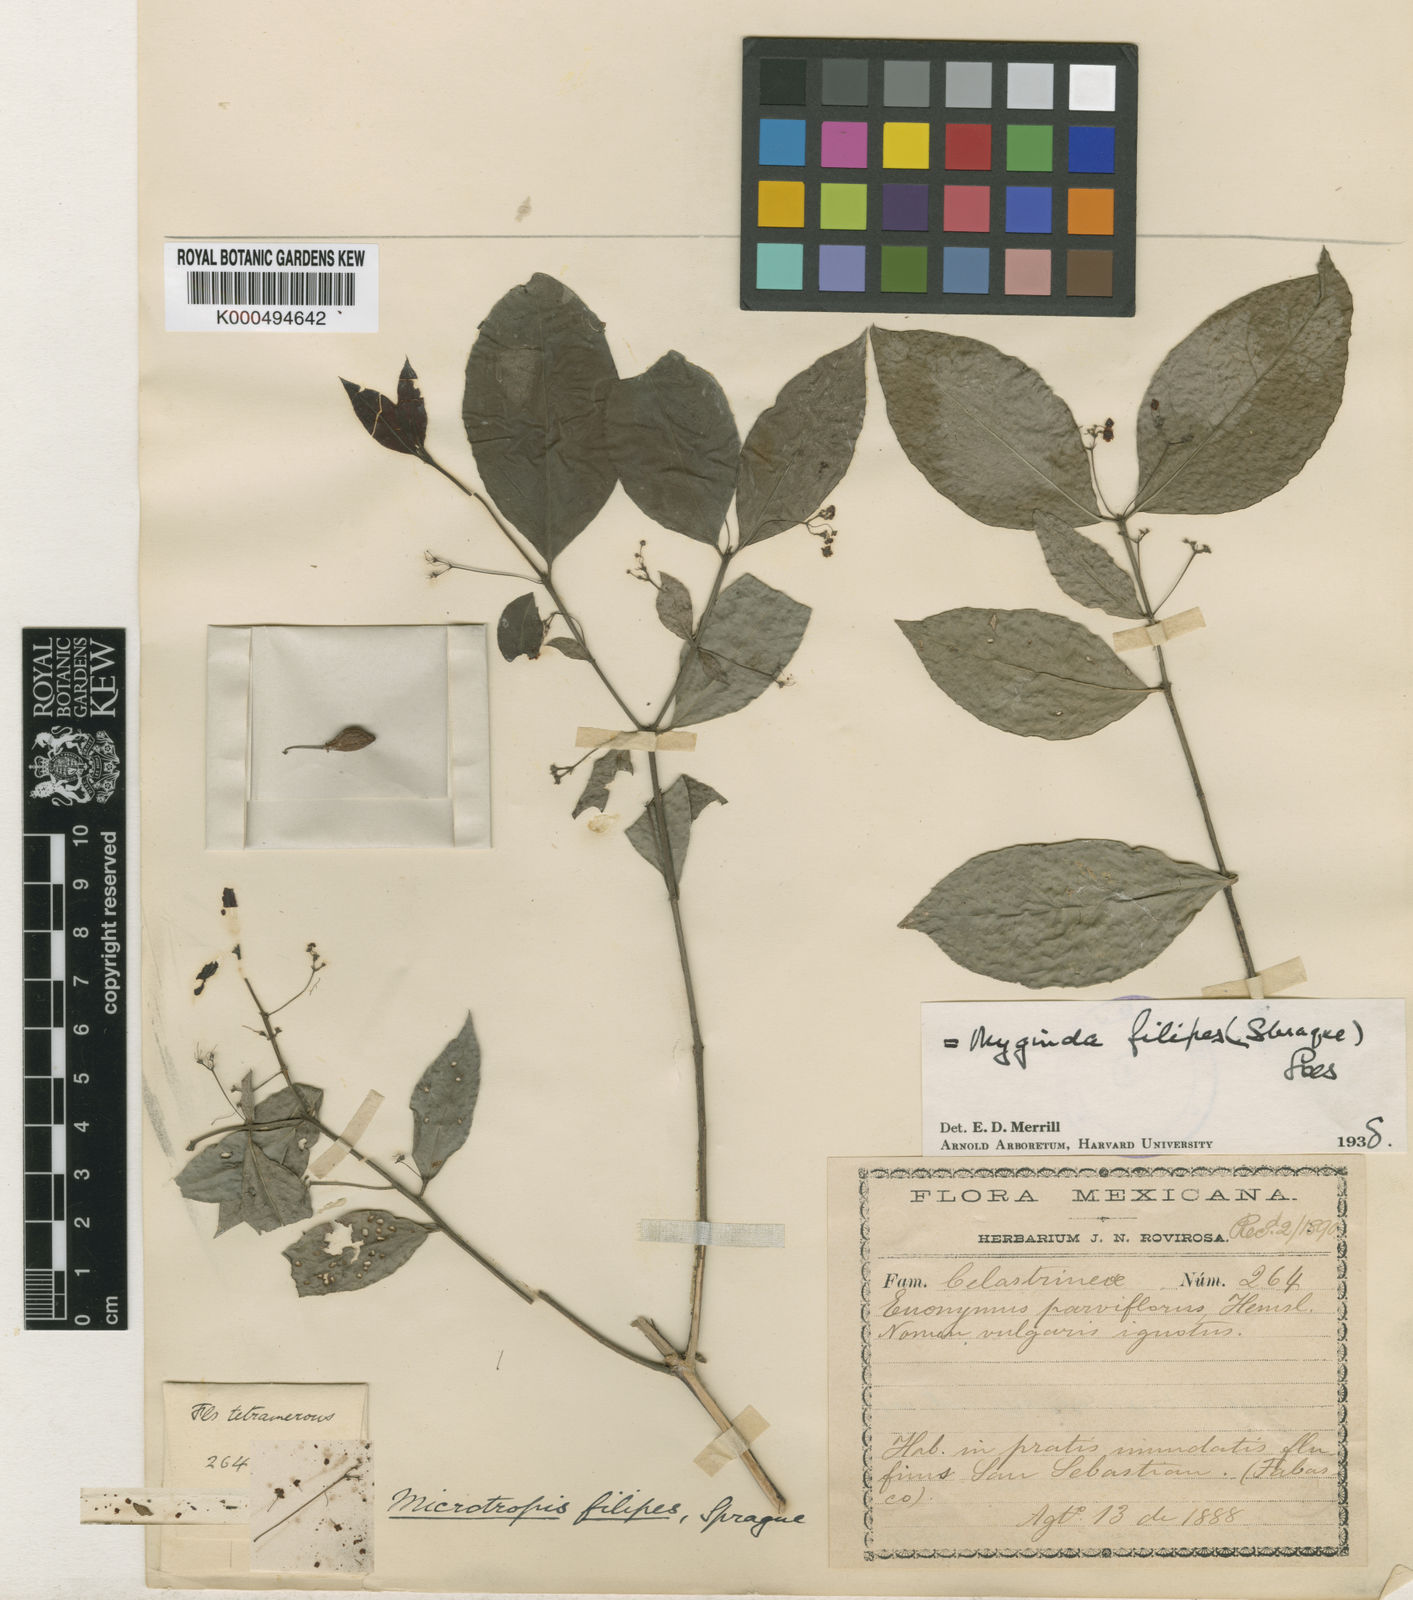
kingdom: Plantae
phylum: Tracheophyta
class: Magnoliopsida
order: Celastrales
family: Celastraceae
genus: Crossopetalum
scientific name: Crossopetalum filipes
